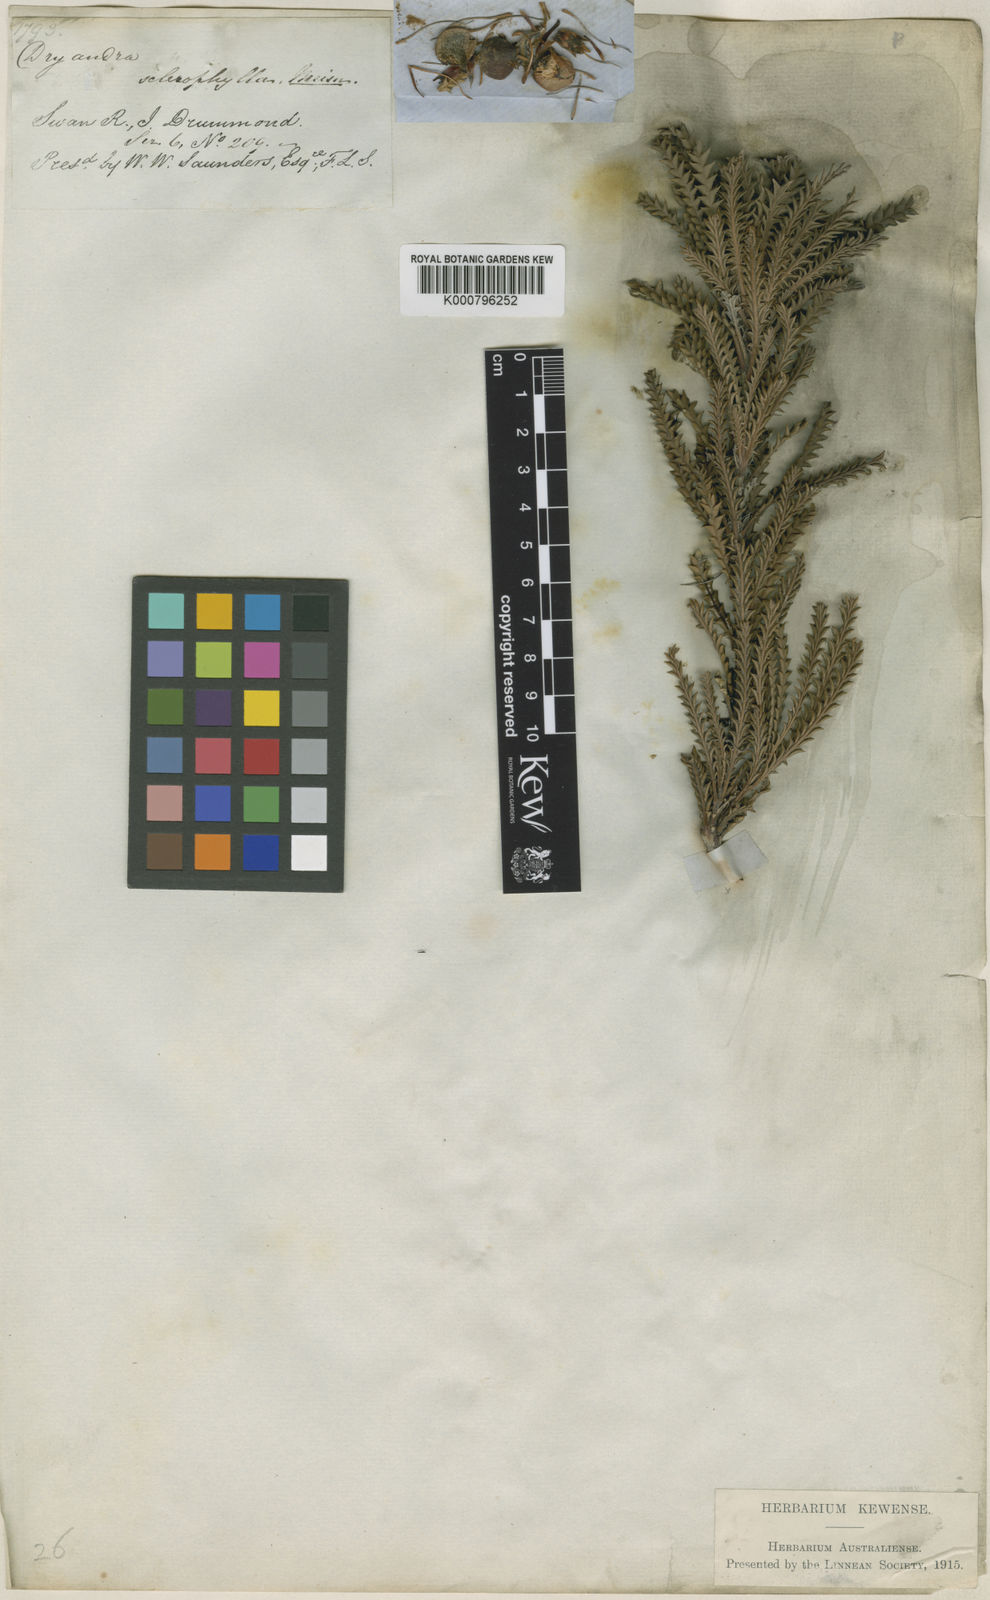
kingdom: Plantae
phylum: Tracheophyta
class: Magnoliopsida
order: Proteales
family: Proteaceae
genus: Banksia
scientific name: Banksia sclerophylla
